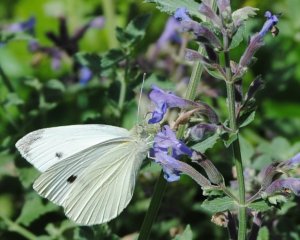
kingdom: Animalia
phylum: Arthropoda
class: Insecta
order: Lepidoptera
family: Pieridae
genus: Pieris
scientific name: Pieris rapae
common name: Cabbage White
